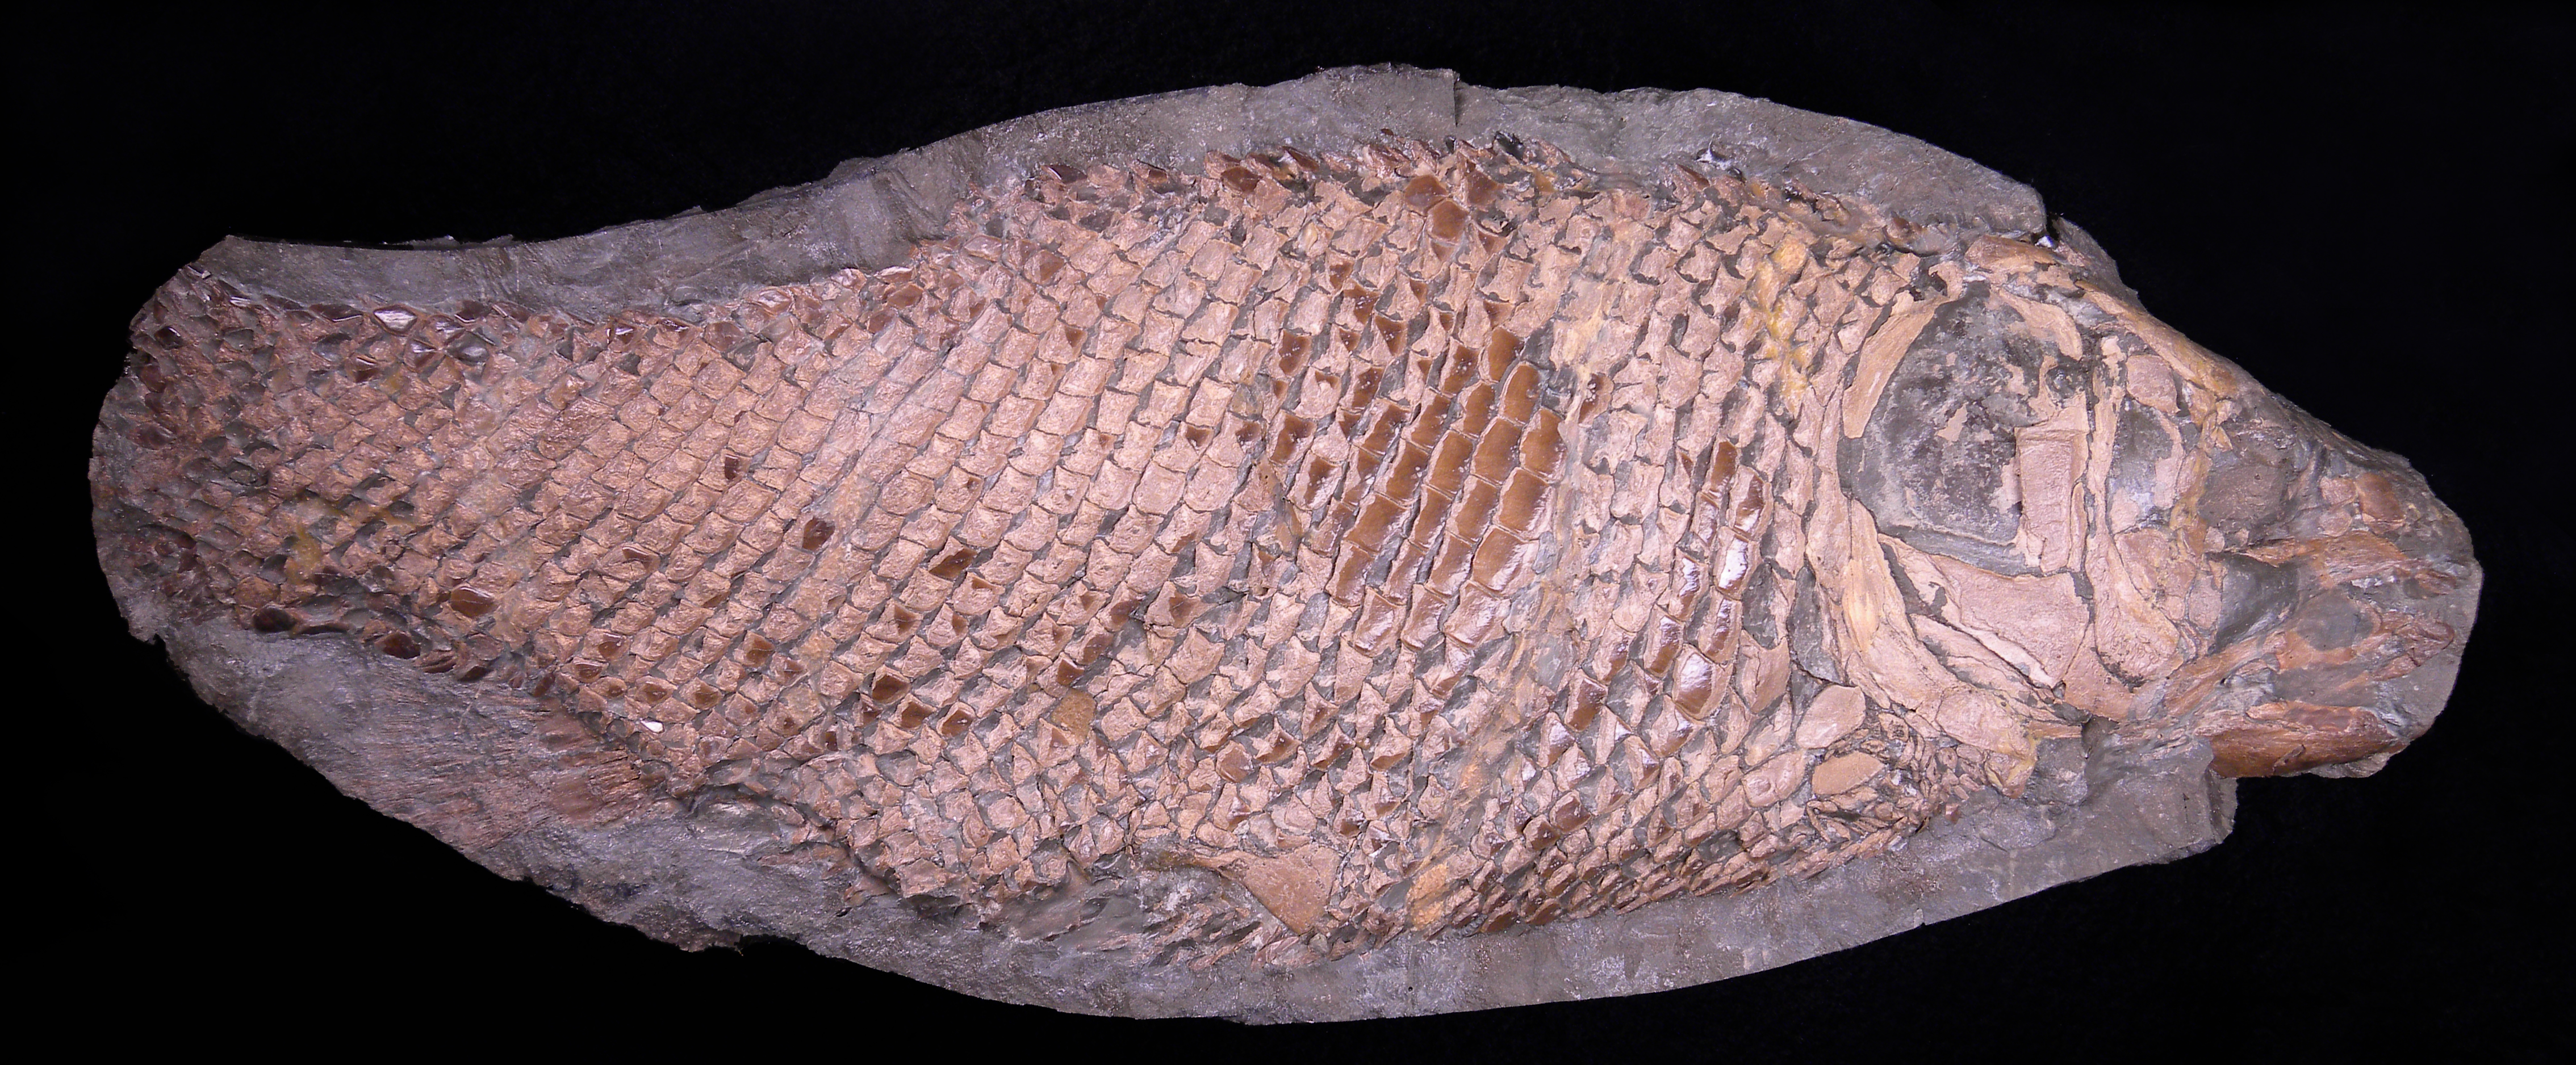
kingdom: Animalia
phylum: Chordata
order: Lepisosteiformes
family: Lepidotidae
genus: Lepidotes
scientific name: Lepidotes elvensis
